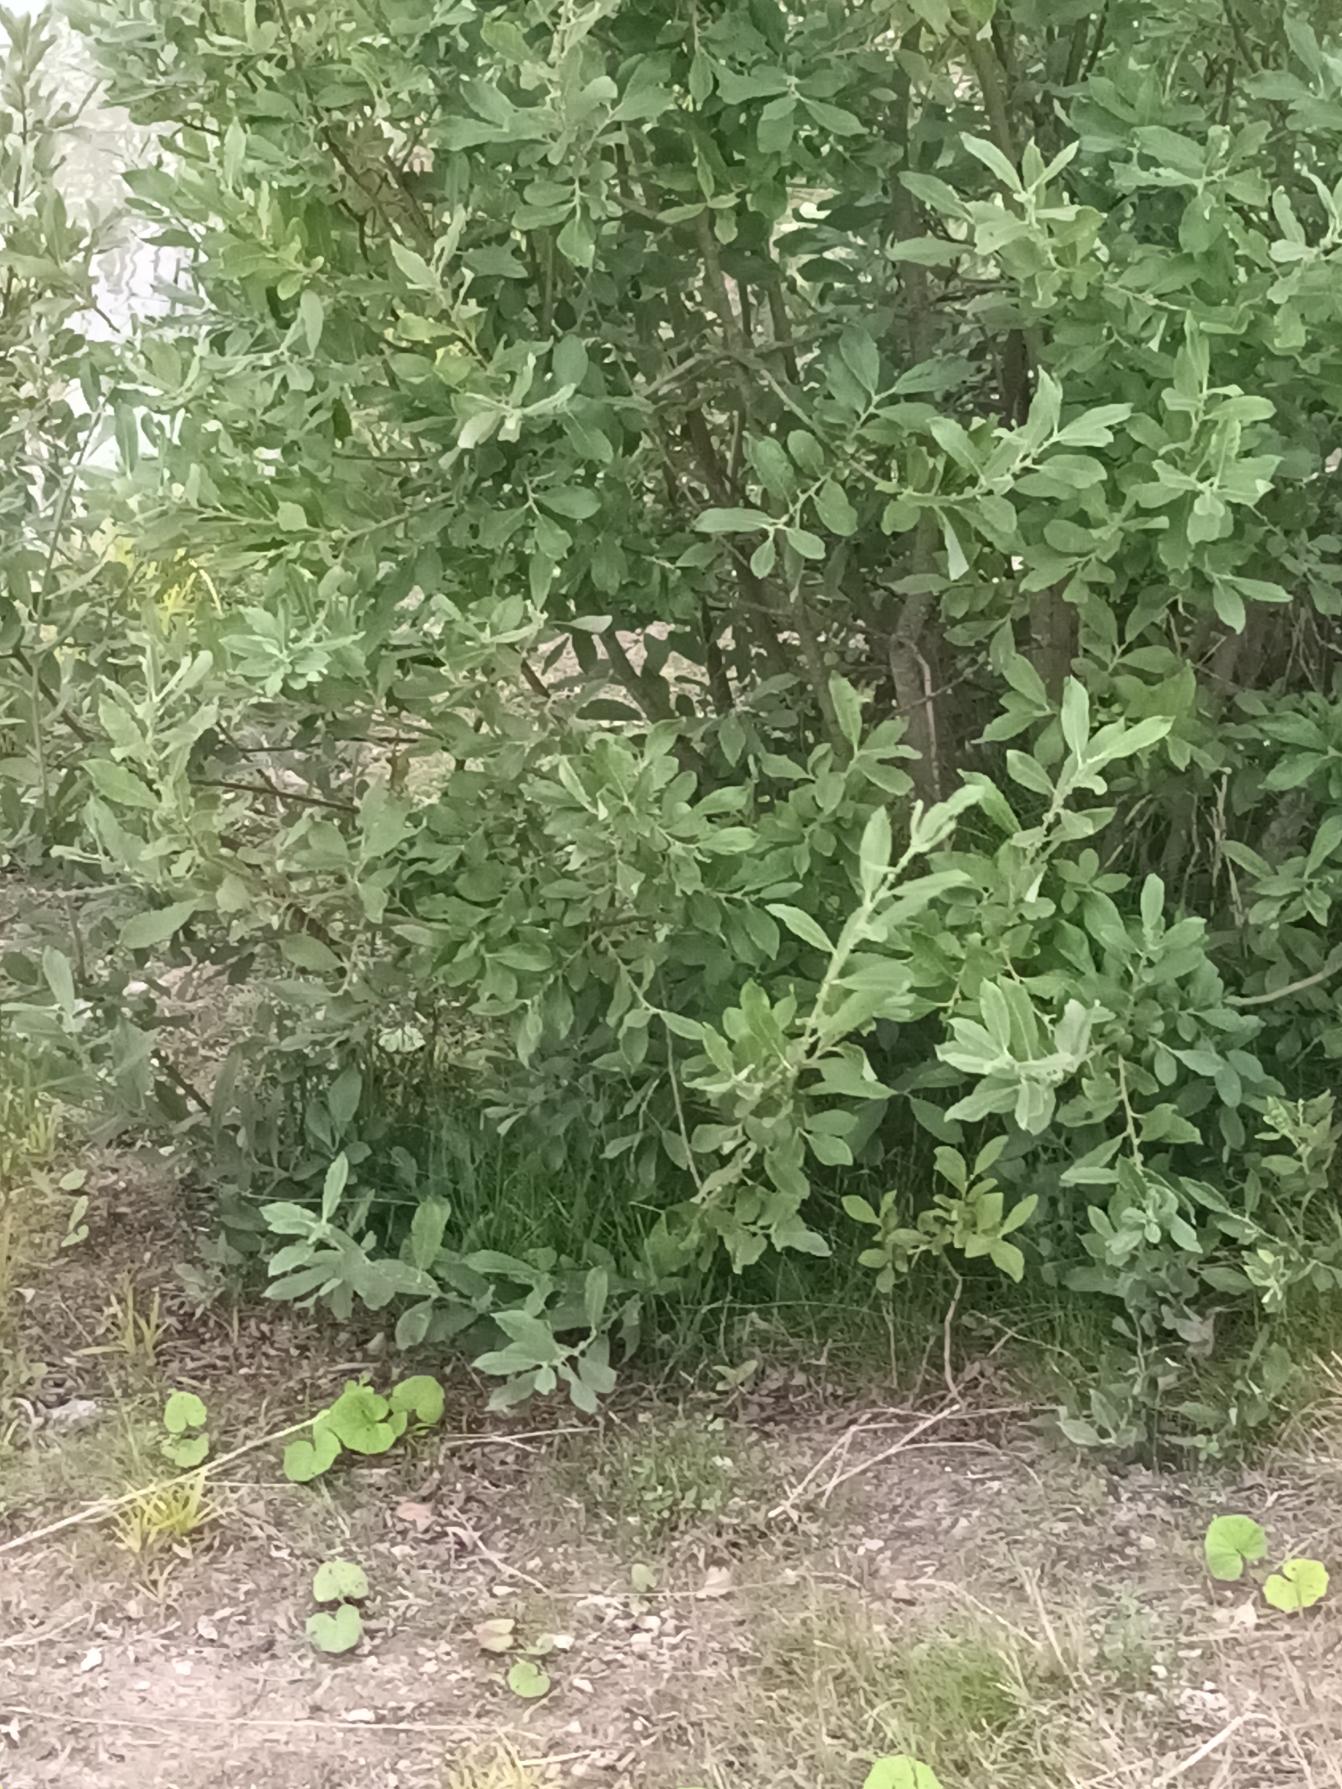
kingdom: Plantae
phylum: Tracheophyta
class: Magnoliopsida
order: Malpighiales
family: Salicaceae
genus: Salix
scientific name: Salix cinerea
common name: Grå-pil
